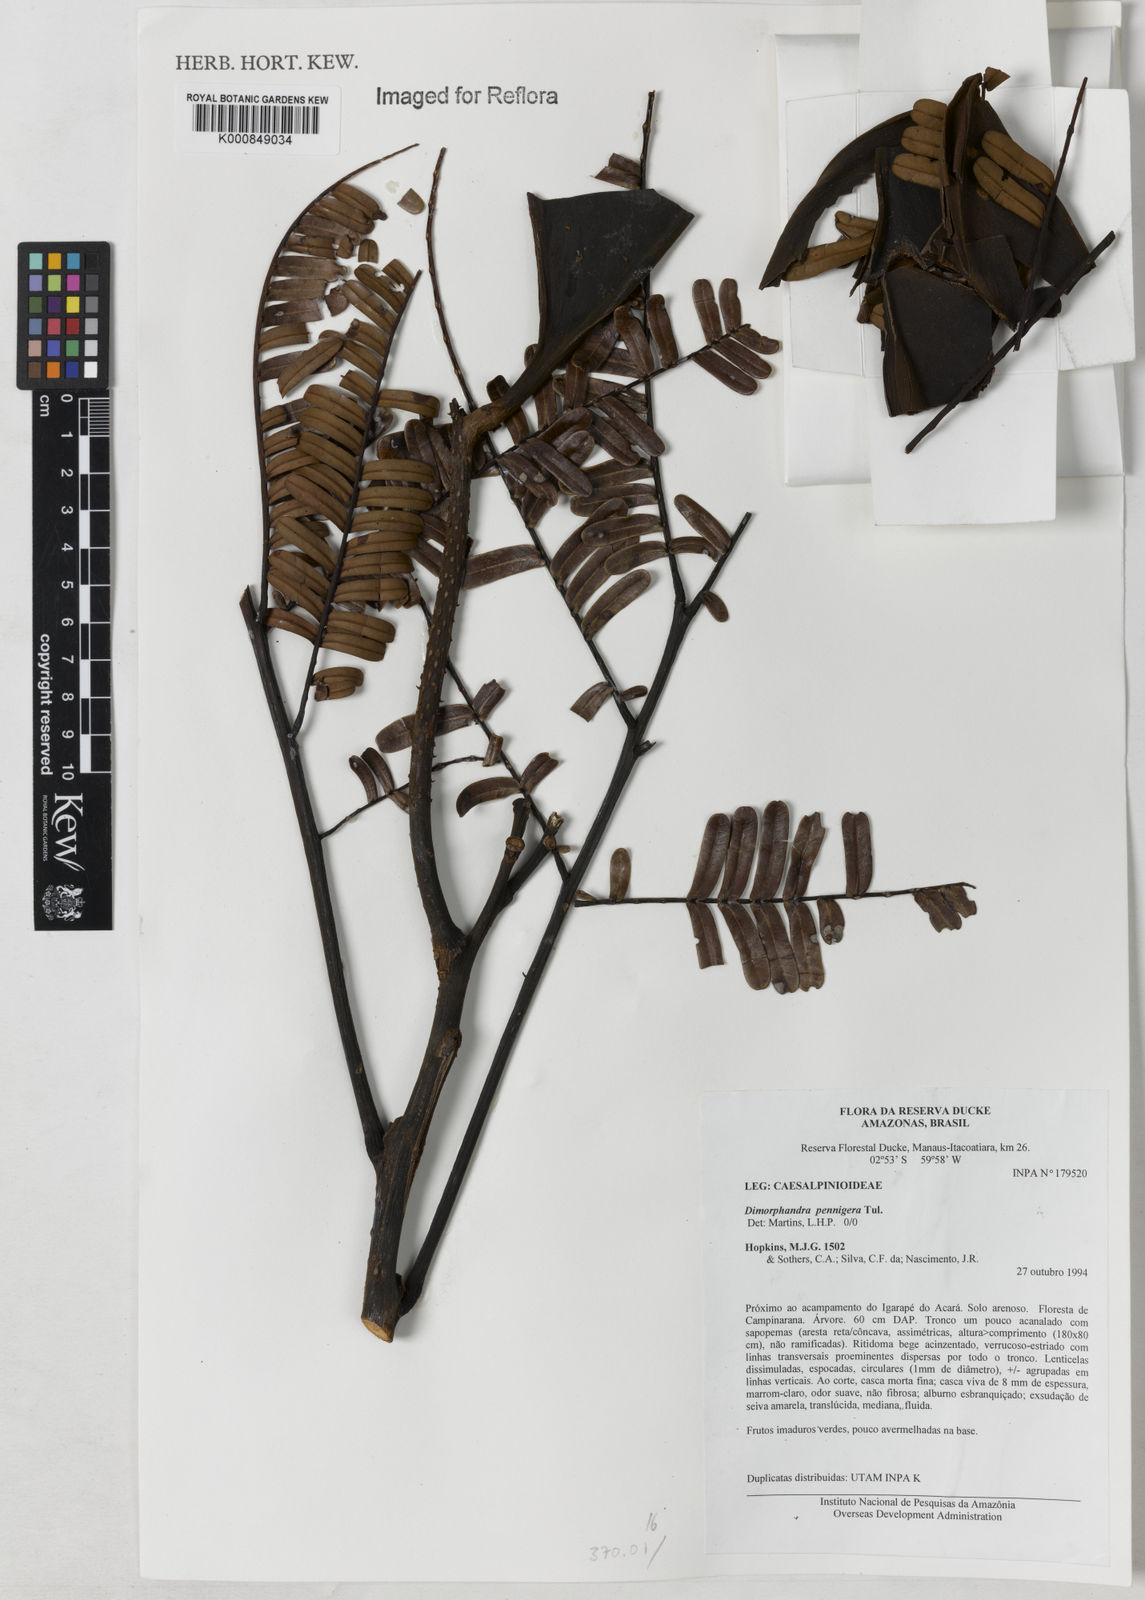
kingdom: Plantae
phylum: Tracheophyta
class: Magnoliopsida
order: Fabales
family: Fabaceae
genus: Dimorphandra
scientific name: Dimorphandra pennigera
